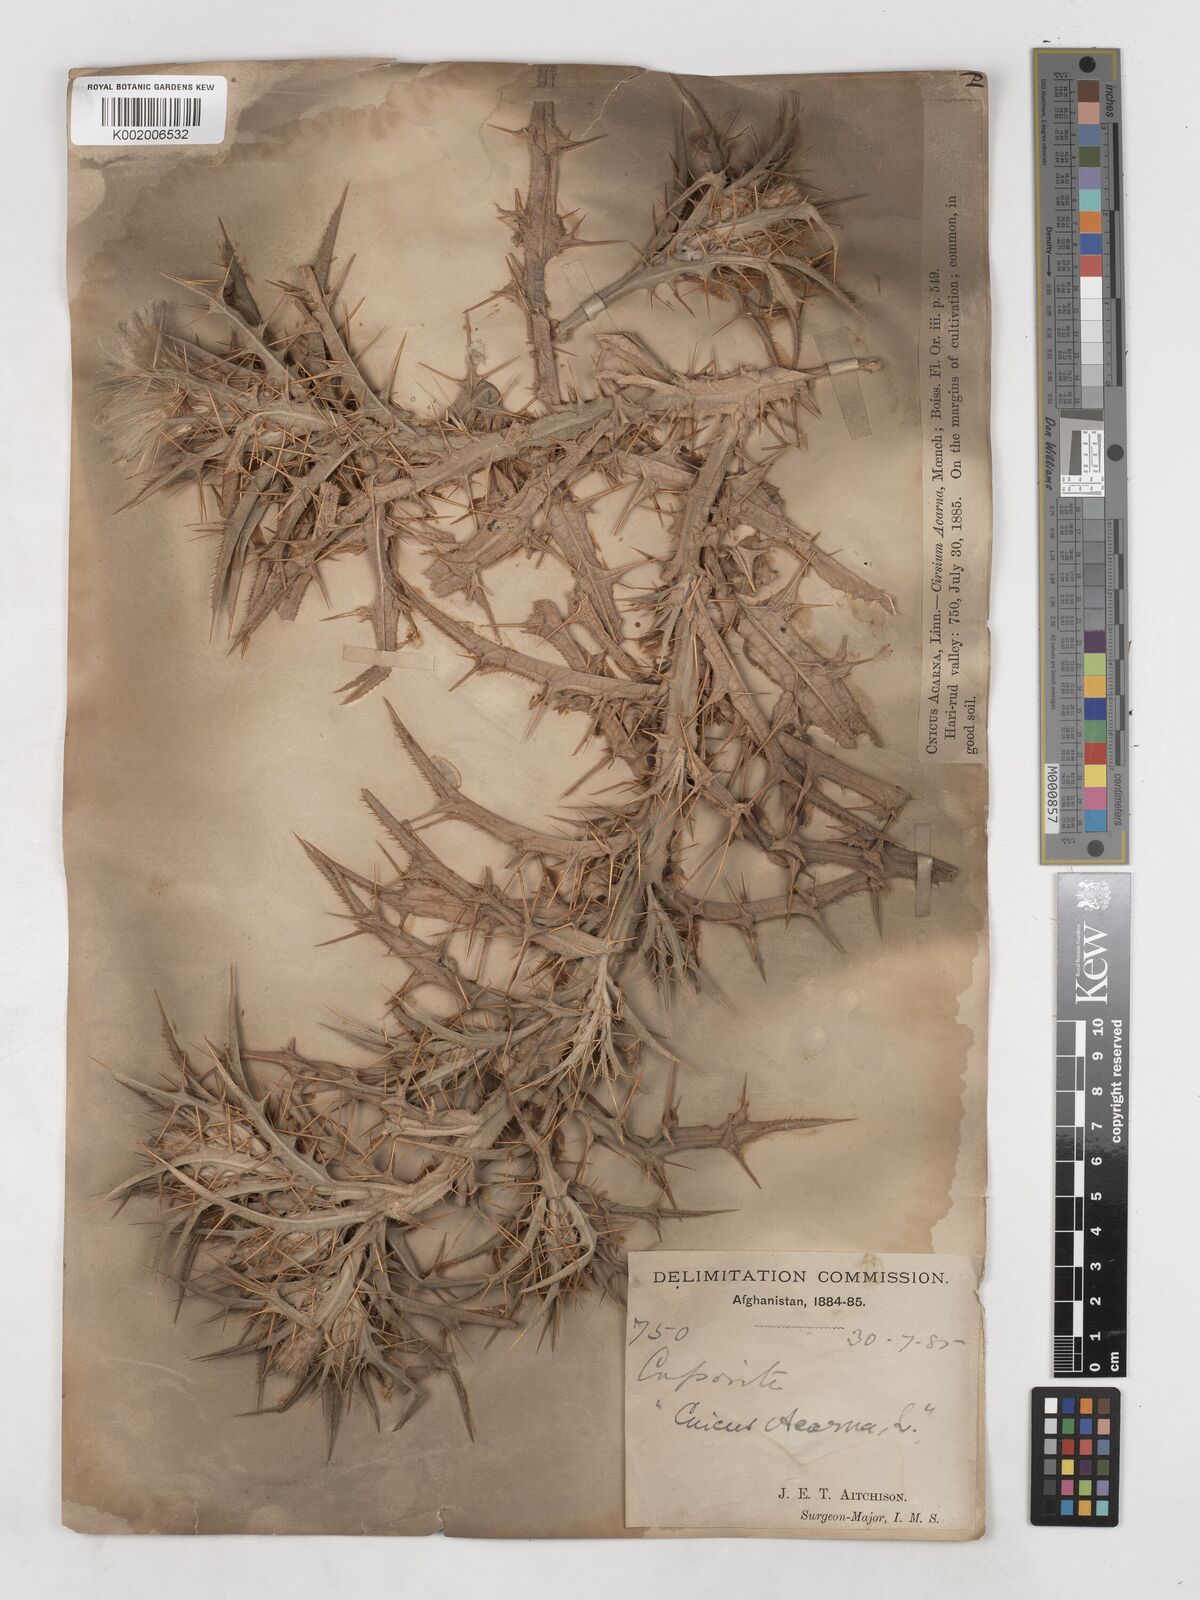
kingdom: Plantae
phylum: Tracheophyta
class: Magnoliopsida
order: Asterales
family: Asteraceae
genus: Picnomon
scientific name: Picnomon acarna
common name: Soldier thistle
